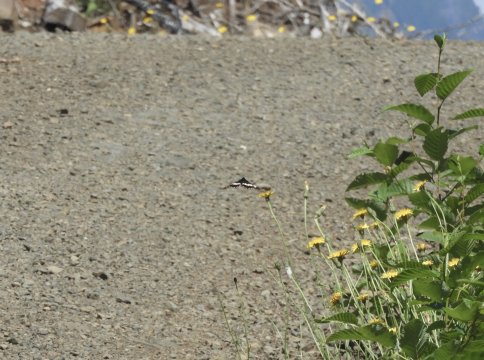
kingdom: Animalia
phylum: Arthropoda
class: Insecta
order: Lepidoptera
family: Nymphalidae
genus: Limenitis
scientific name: Limenitis lorquini
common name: Lorquin's Admiral
